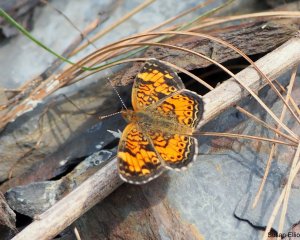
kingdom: Animalia
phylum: Arthropoda
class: Insecta
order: Lepidoptera
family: Nymphalidae
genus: Phyciodes
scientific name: Phyciodes
